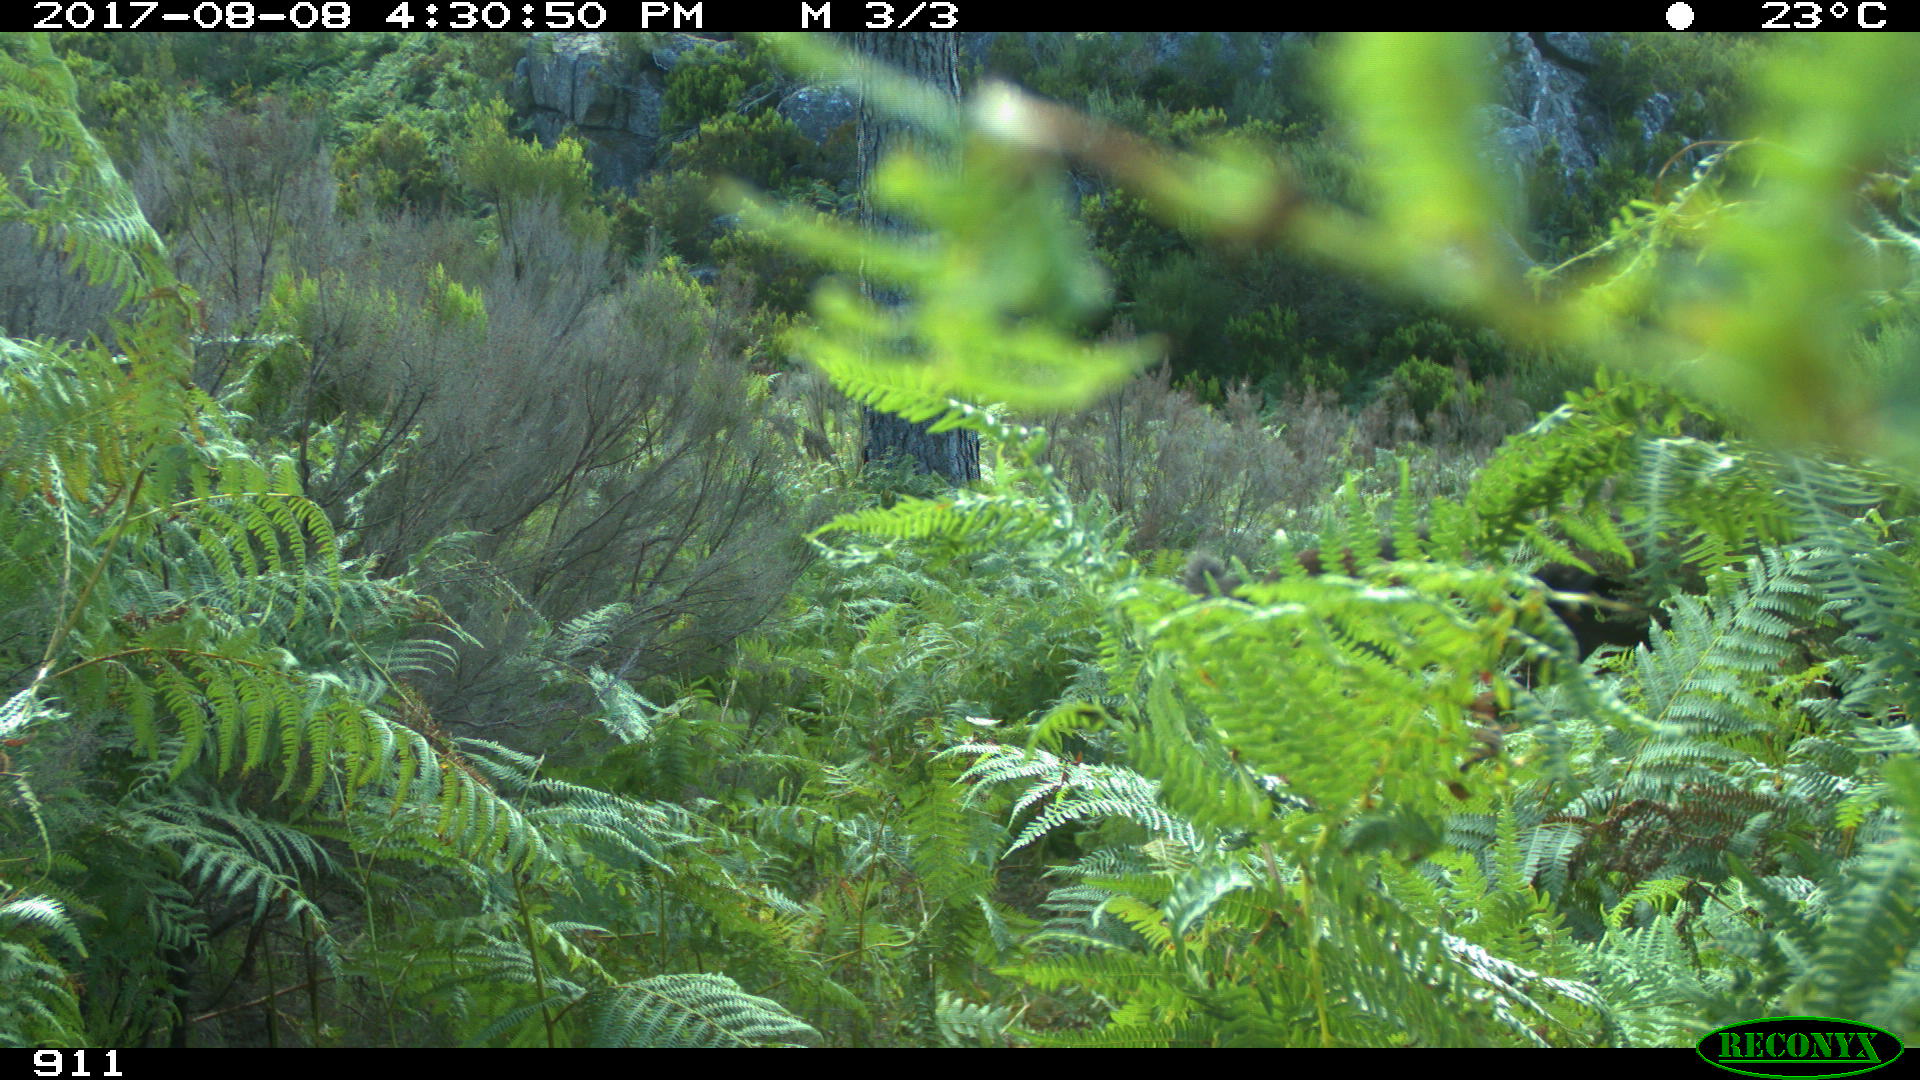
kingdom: Animalia
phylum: Chordata
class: Mammalia
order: Perissodactyla
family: Equidae
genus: Equus
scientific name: Equus caballus
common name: Horse
